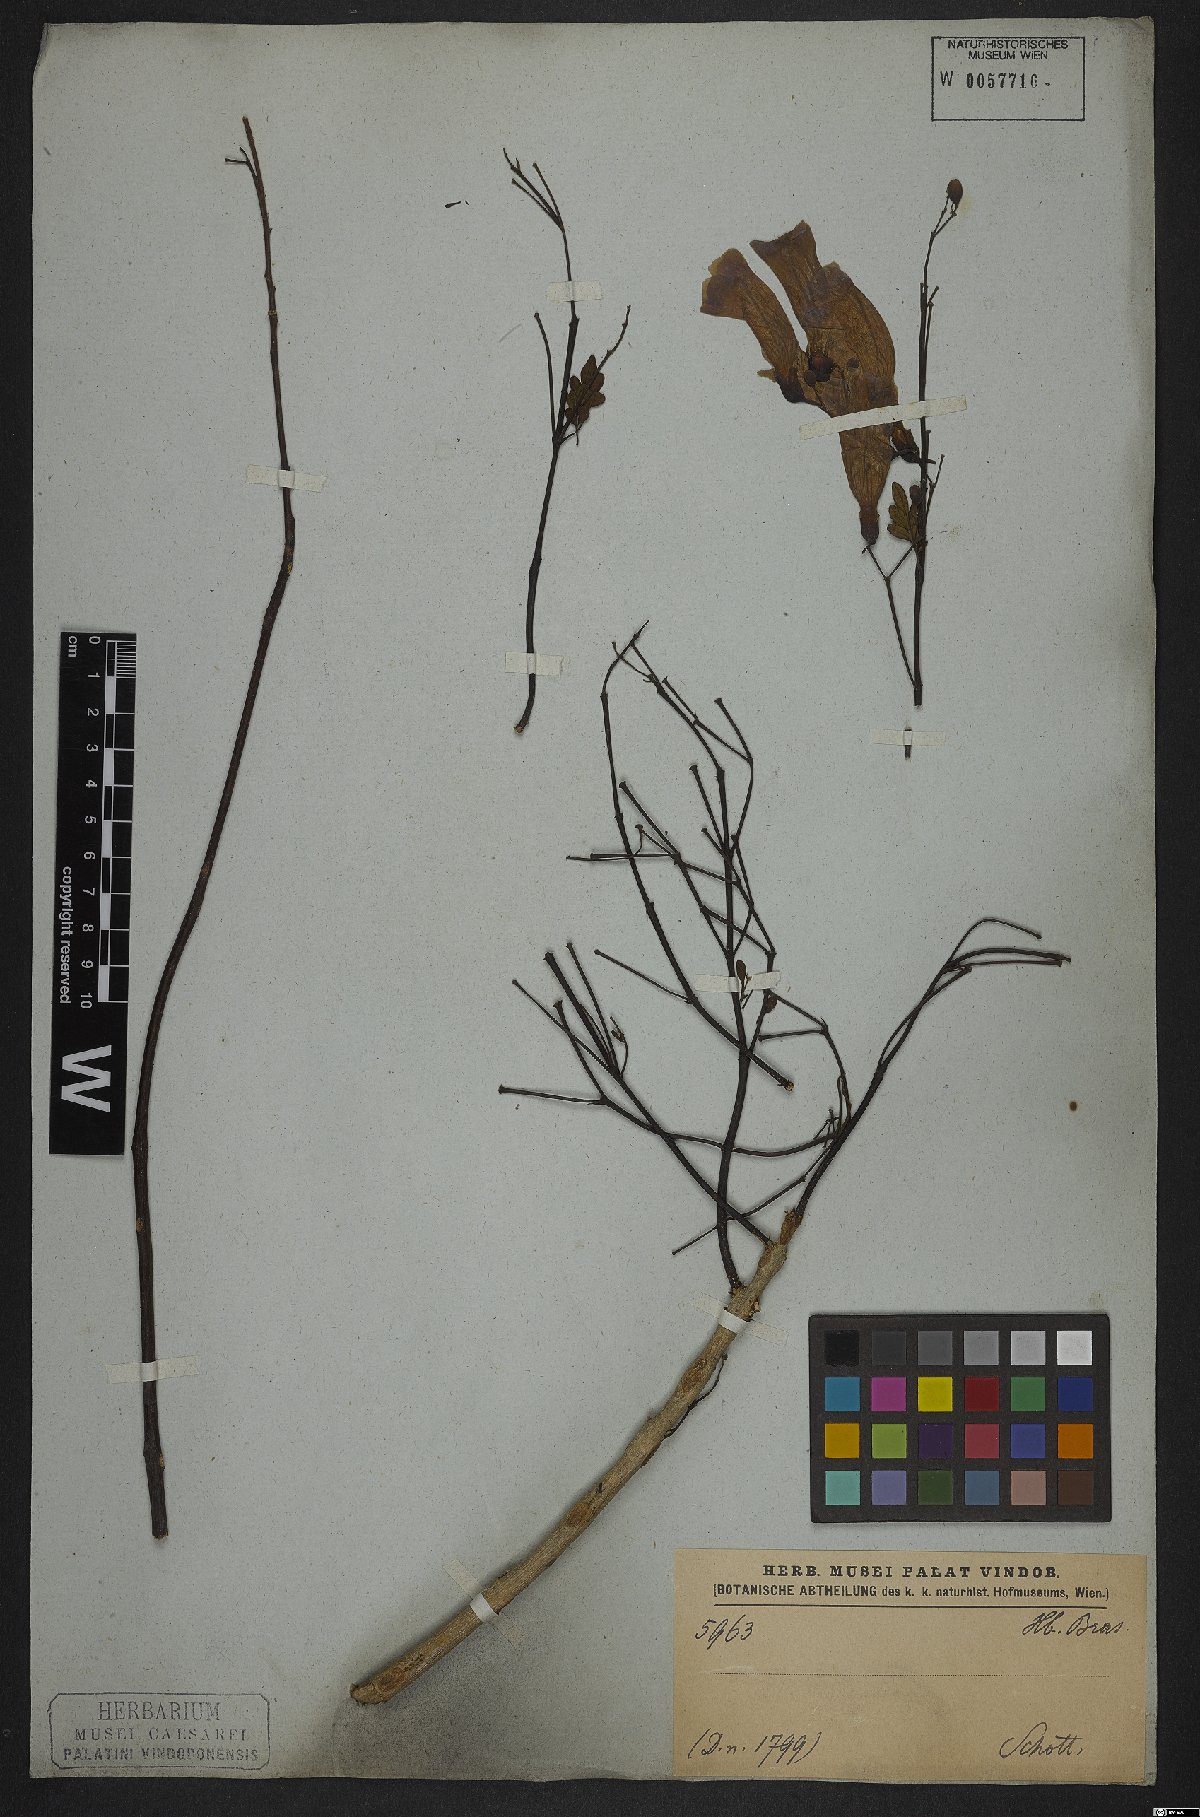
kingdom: Plantae
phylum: Tracheophyta
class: Magnoliopsida
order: Lamiales
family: Bignoniaceae
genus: Jacaranda
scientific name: Jacaranda puberula
